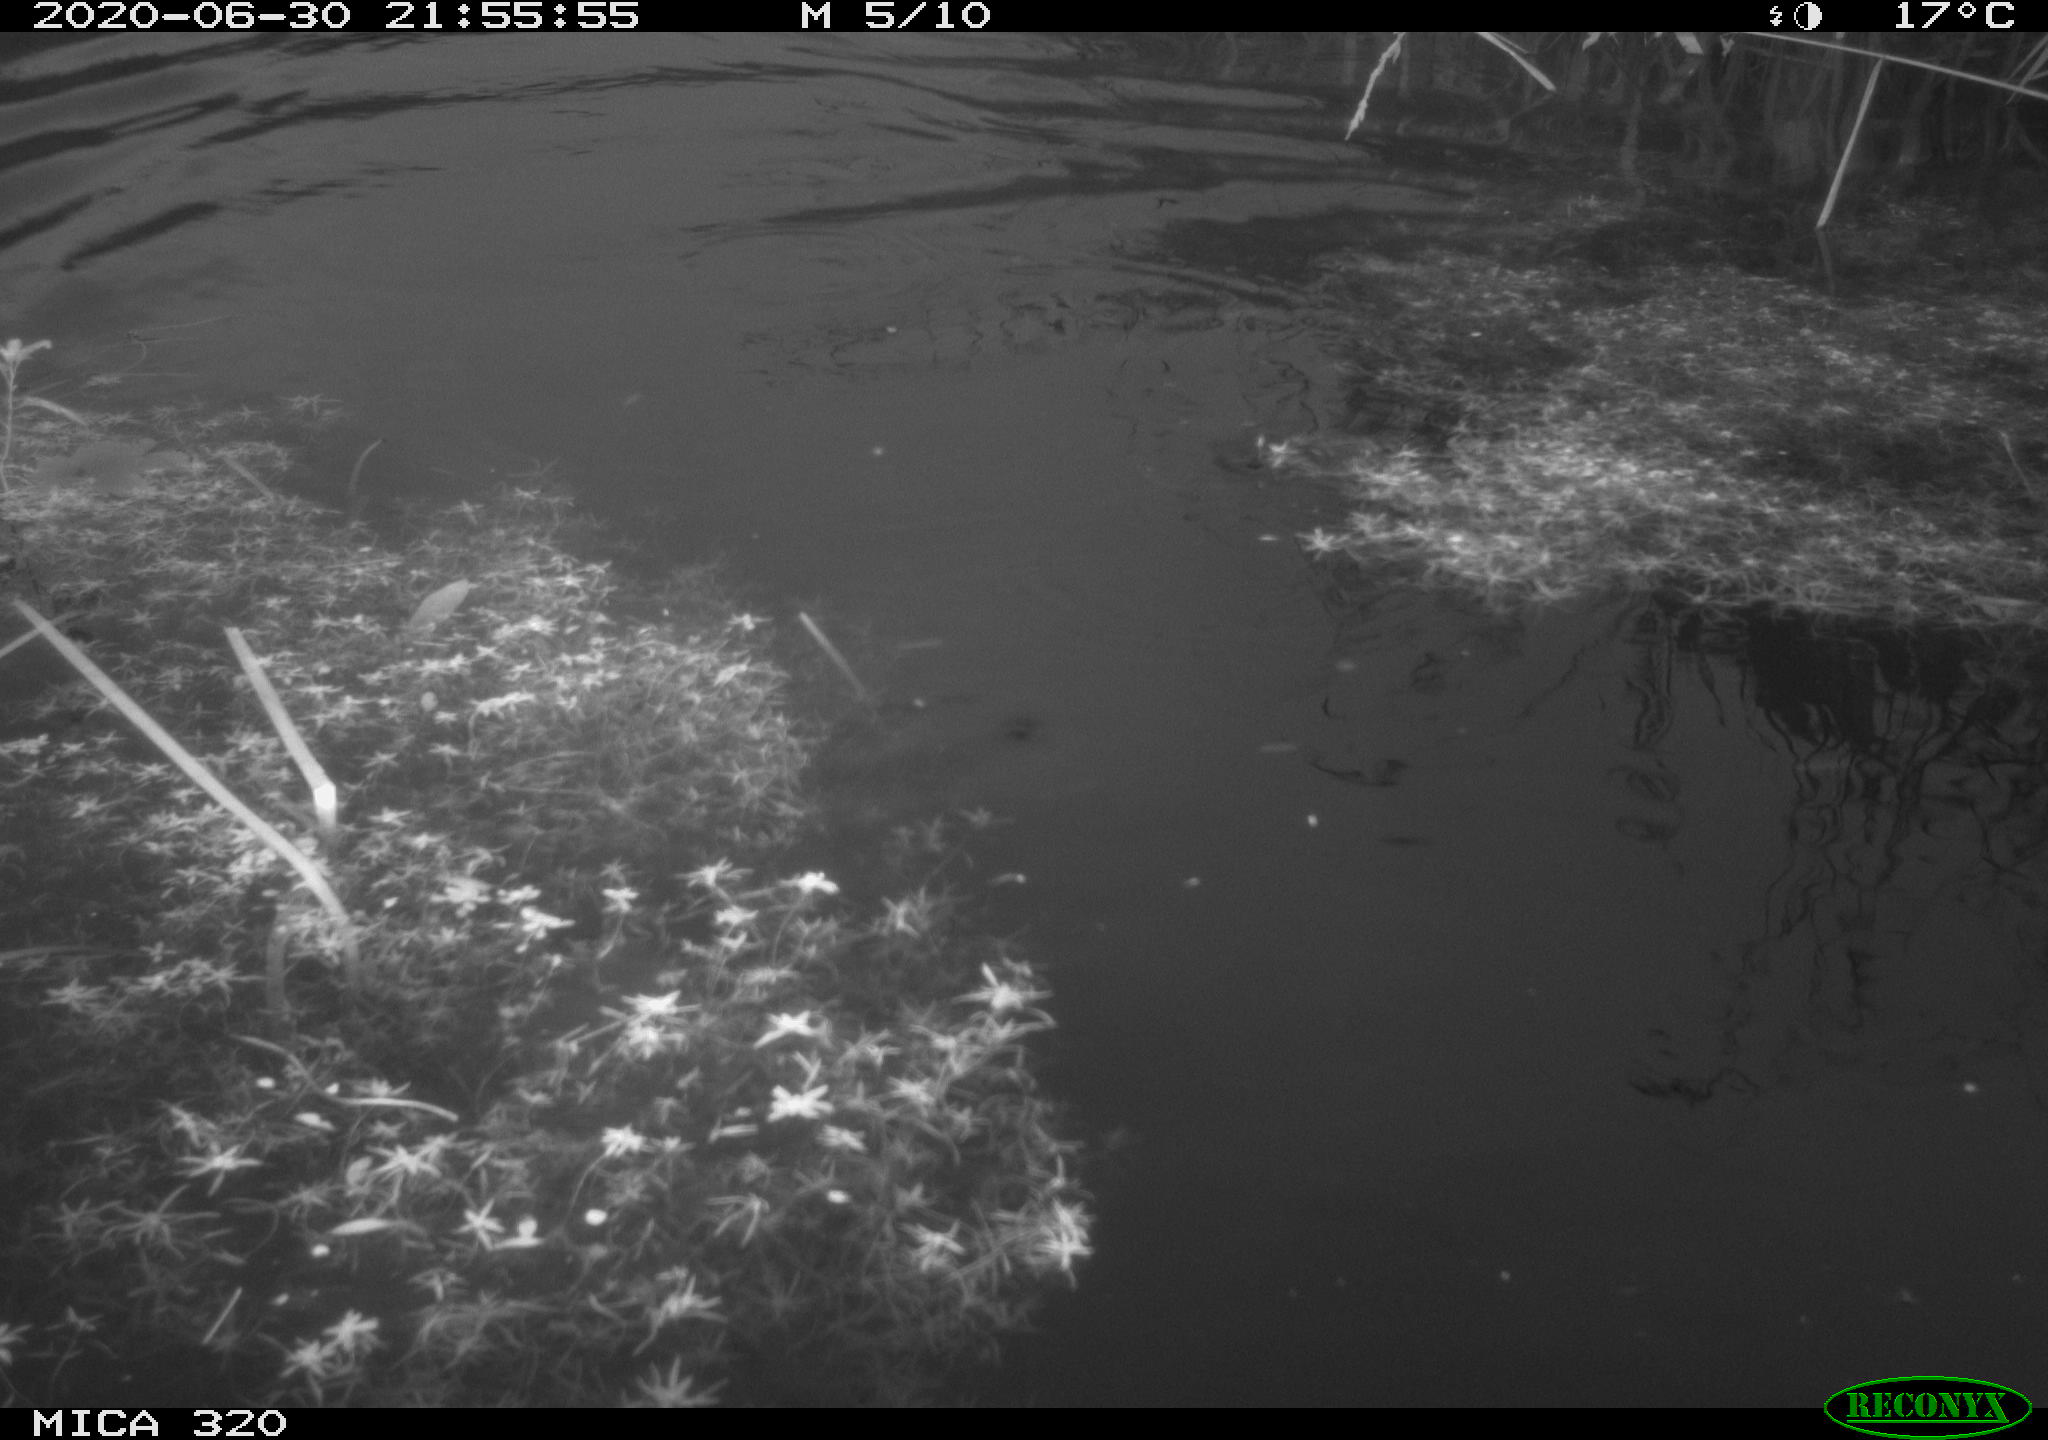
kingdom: Animalia
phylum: Chordata
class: Aves
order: Anseriformes
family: Anatidae
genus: Anas
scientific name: Anas platyrhynchos
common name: Mallard
